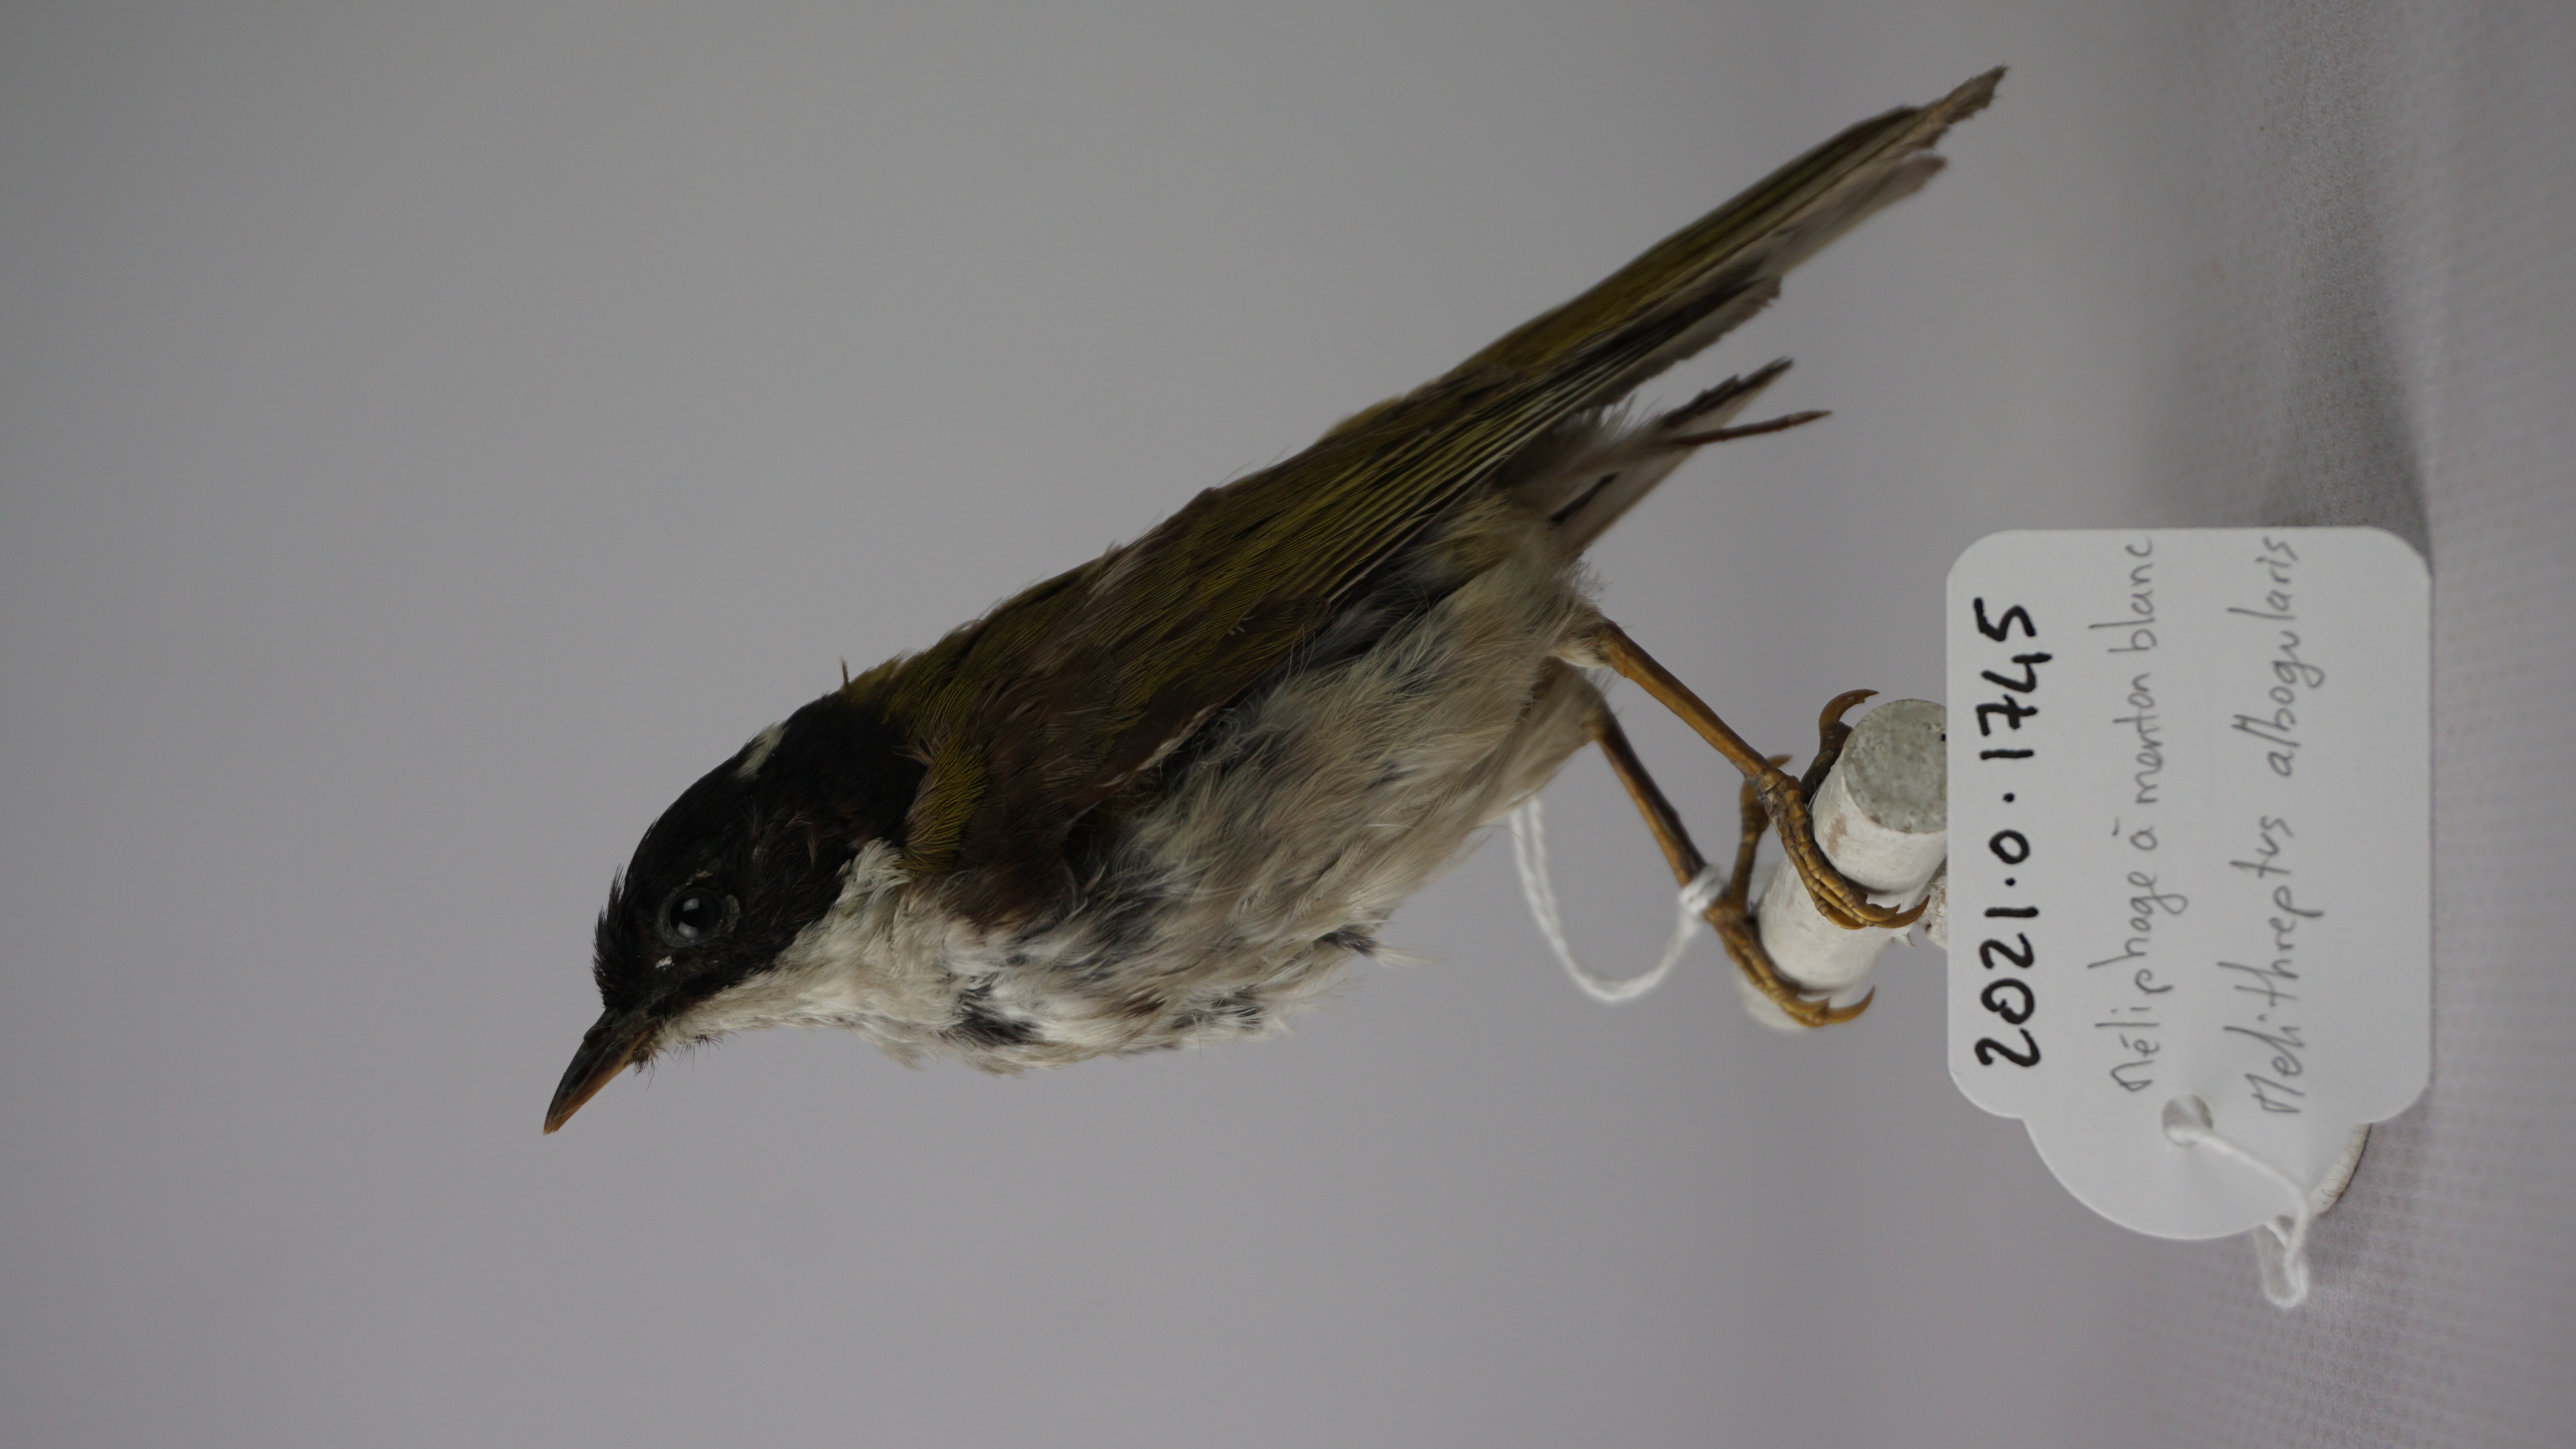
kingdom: Animalia
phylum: Chordata
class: Aves
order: Passeriformes
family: Meliphagidae
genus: Melithreptus
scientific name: Melithreptus albogularis
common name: White-throated honeyeater
